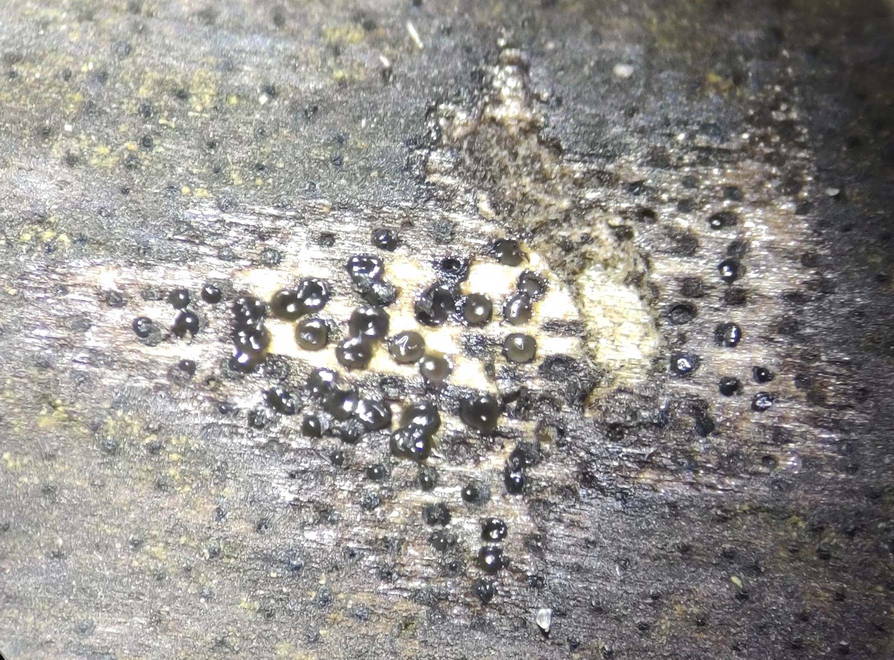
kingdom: Fungi
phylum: Ascomycota
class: Sordariomycetes
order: Xylariales
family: Diatrypaceae
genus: Eutypa
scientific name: Eutypa sparsa
